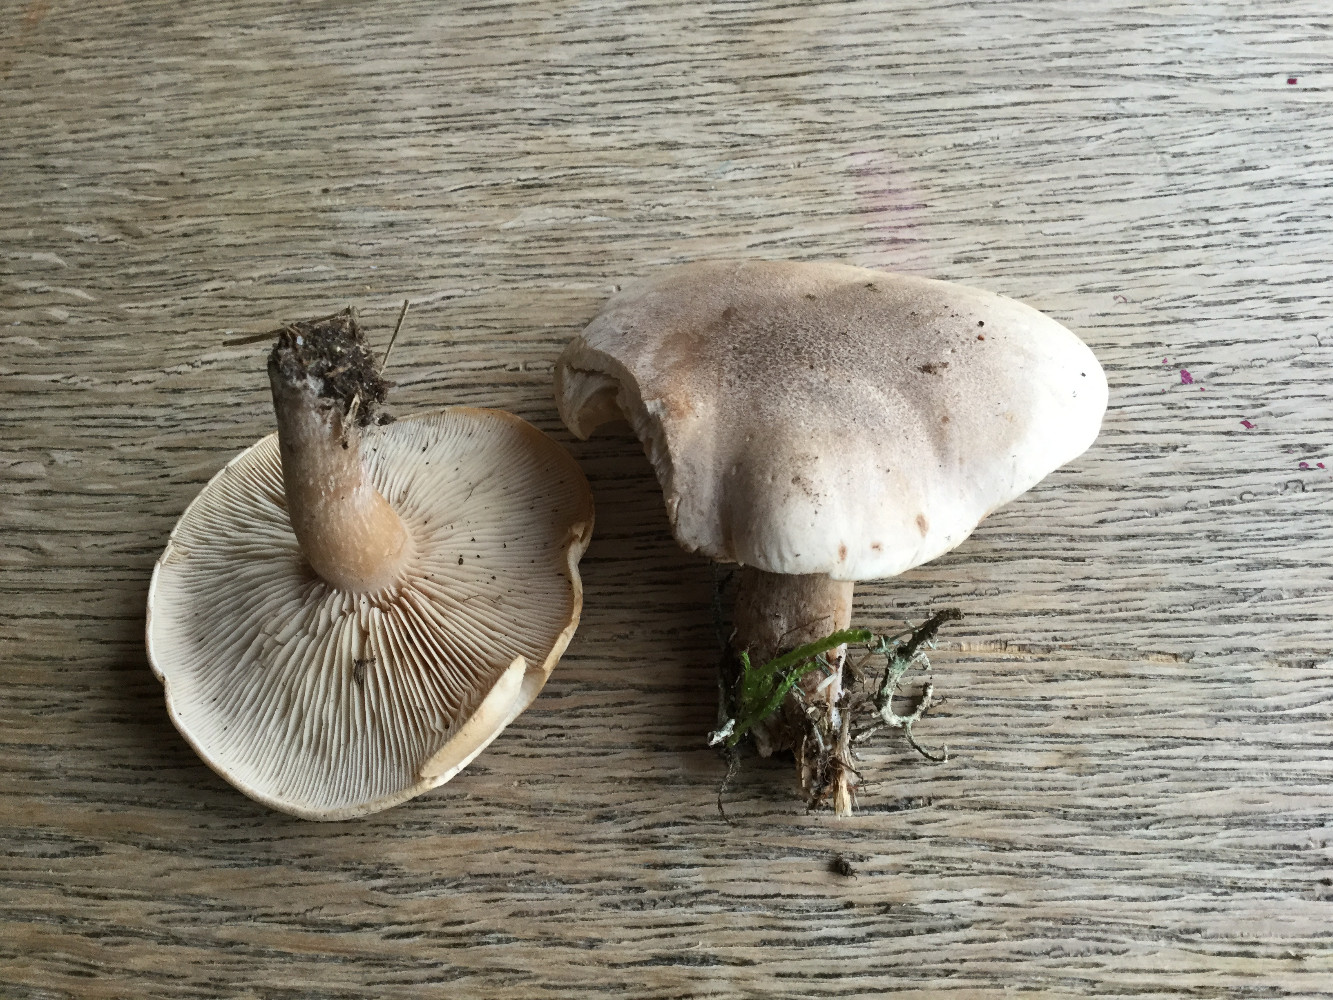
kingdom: Fungi
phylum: Basidiomycota
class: Agaricomycetes
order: Agaricales
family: Tricholomataceae
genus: Lepista
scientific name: Lepista panaeolus
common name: marmoreret hekseringshat
